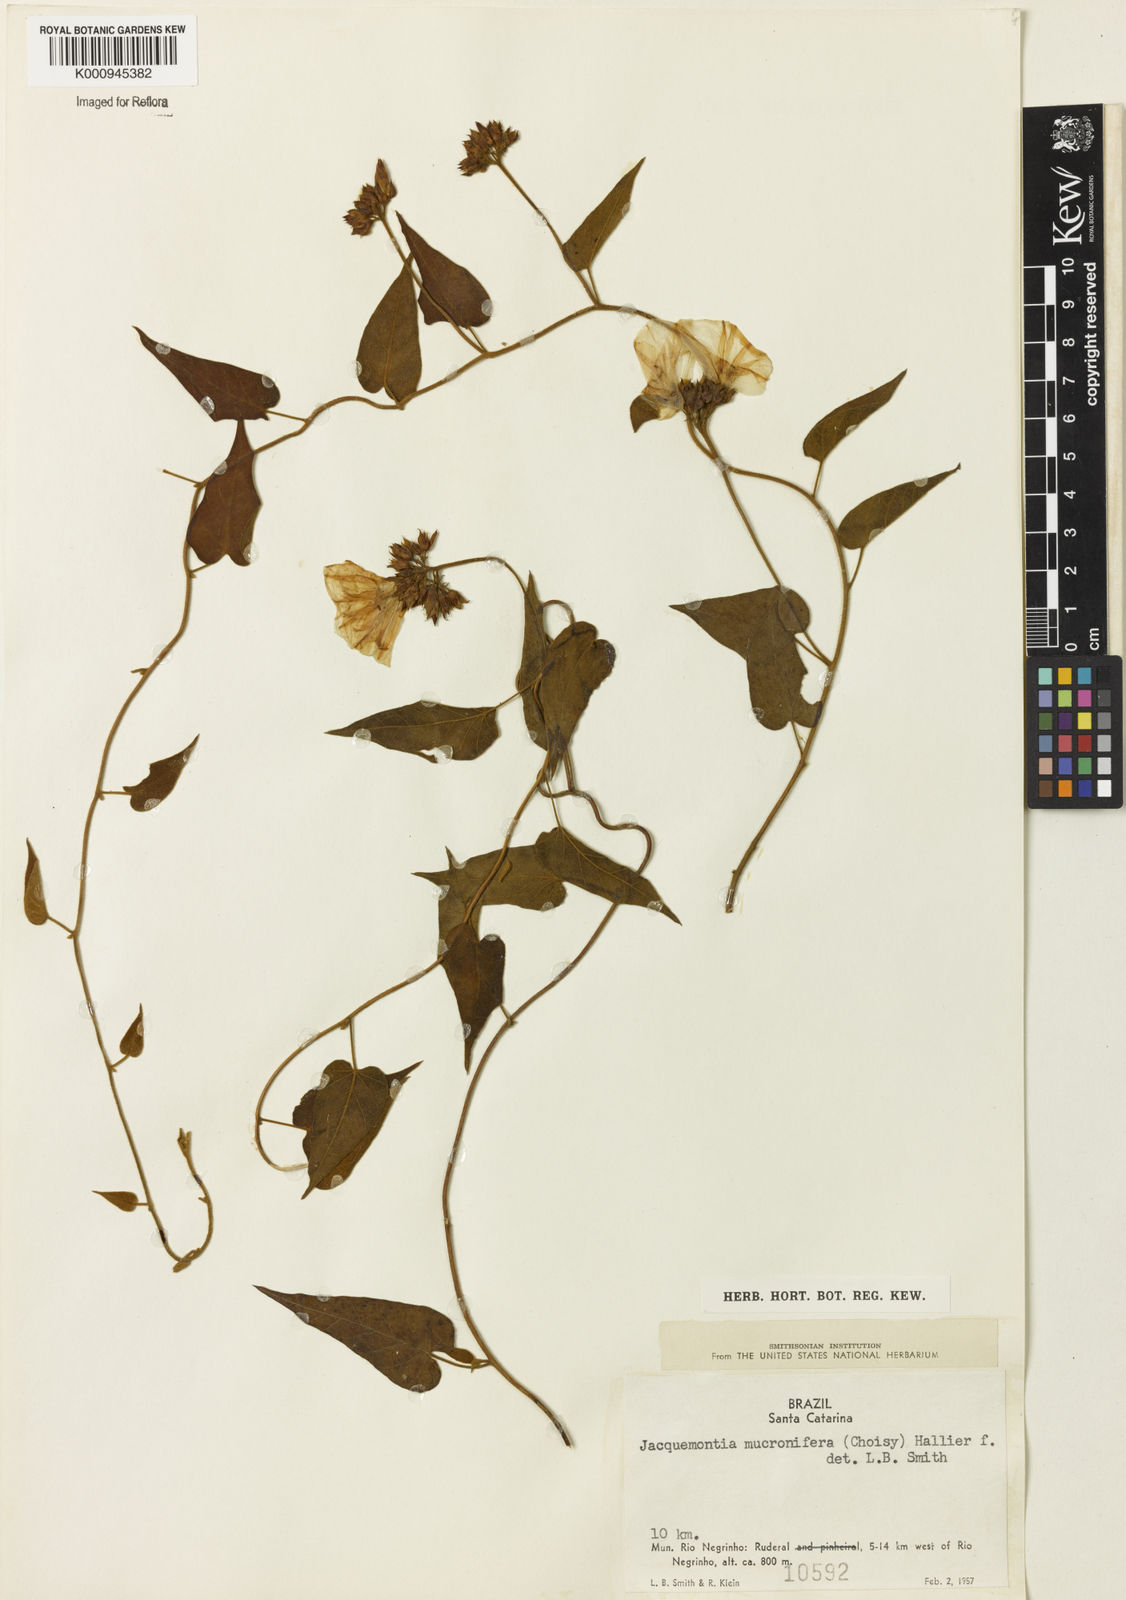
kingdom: Plantae
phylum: Tracheophyta
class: Magnoliopsida
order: Solanales
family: Convolvulaceae
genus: Jacquemontia
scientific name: Jacquemontia guyanensis
